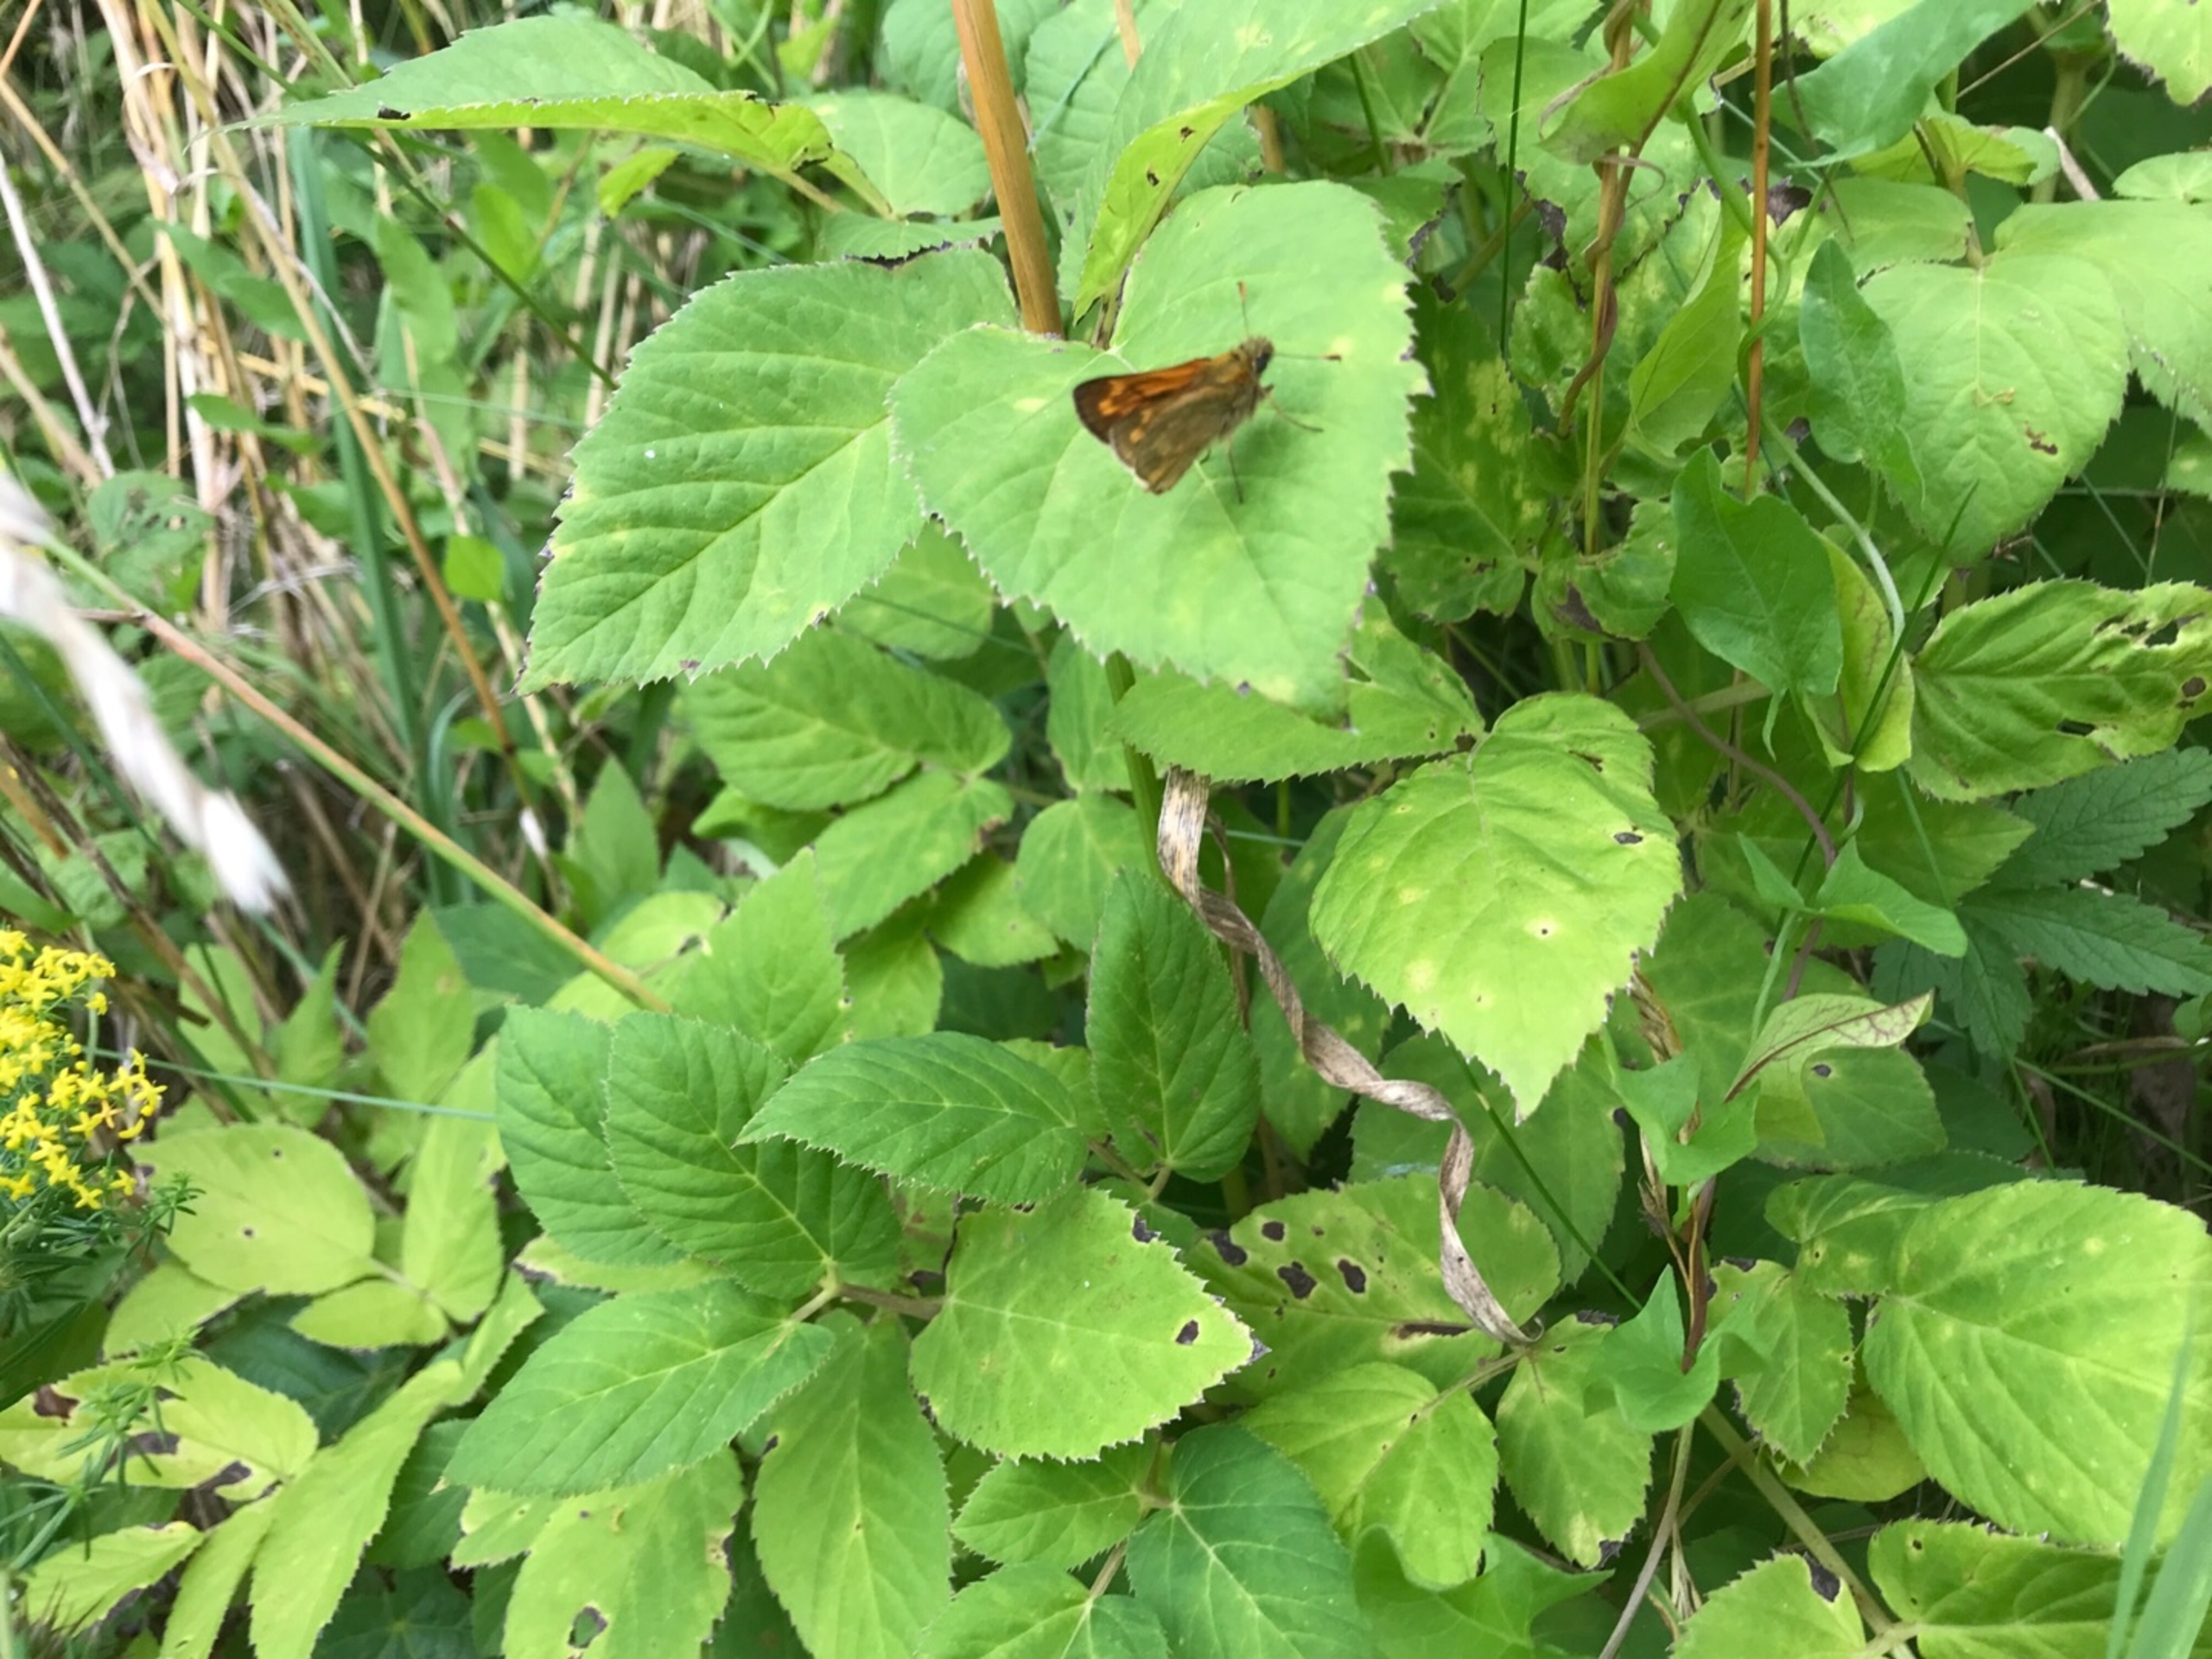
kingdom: Animalia
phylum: Arthropoda
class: Insecta
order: Lepidoptera
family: Hesperiidae
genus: Ochlodes
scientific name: Ochlodes venata
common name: Stor bredpande
